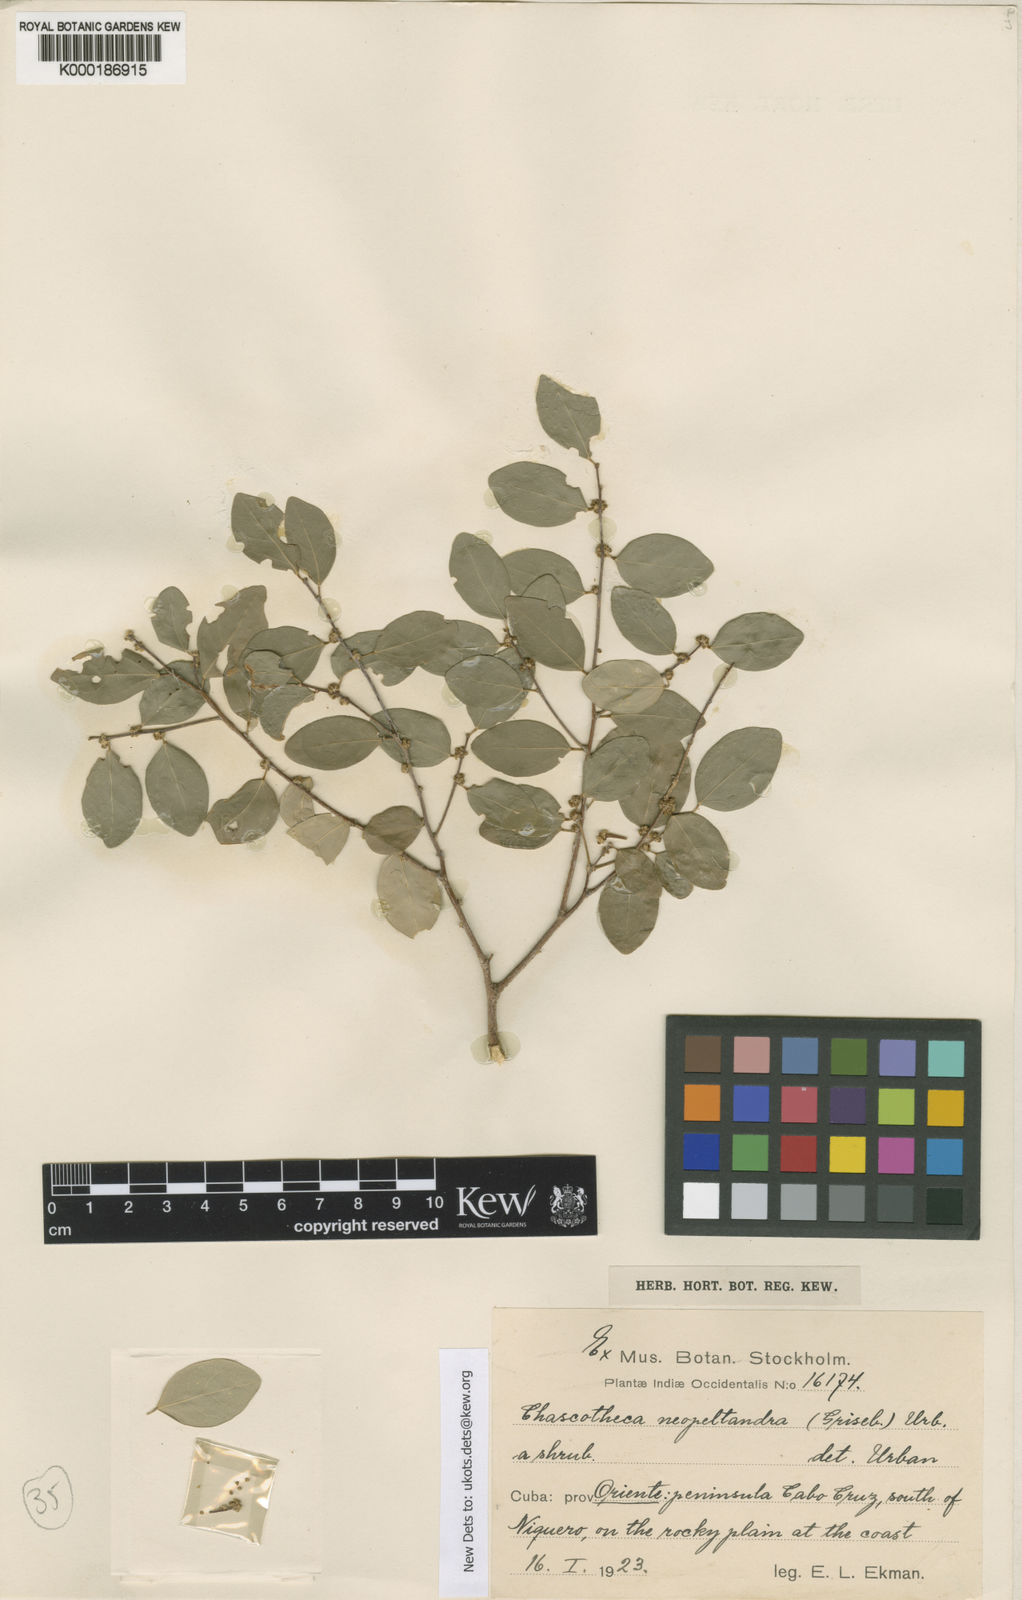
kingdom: Plantae
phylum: Tracheophyta
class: Magnoliopsida
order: Malpighiales
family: Phyllanthaceae
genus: Chascotheca
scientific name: Chascotheca neopeltandra
